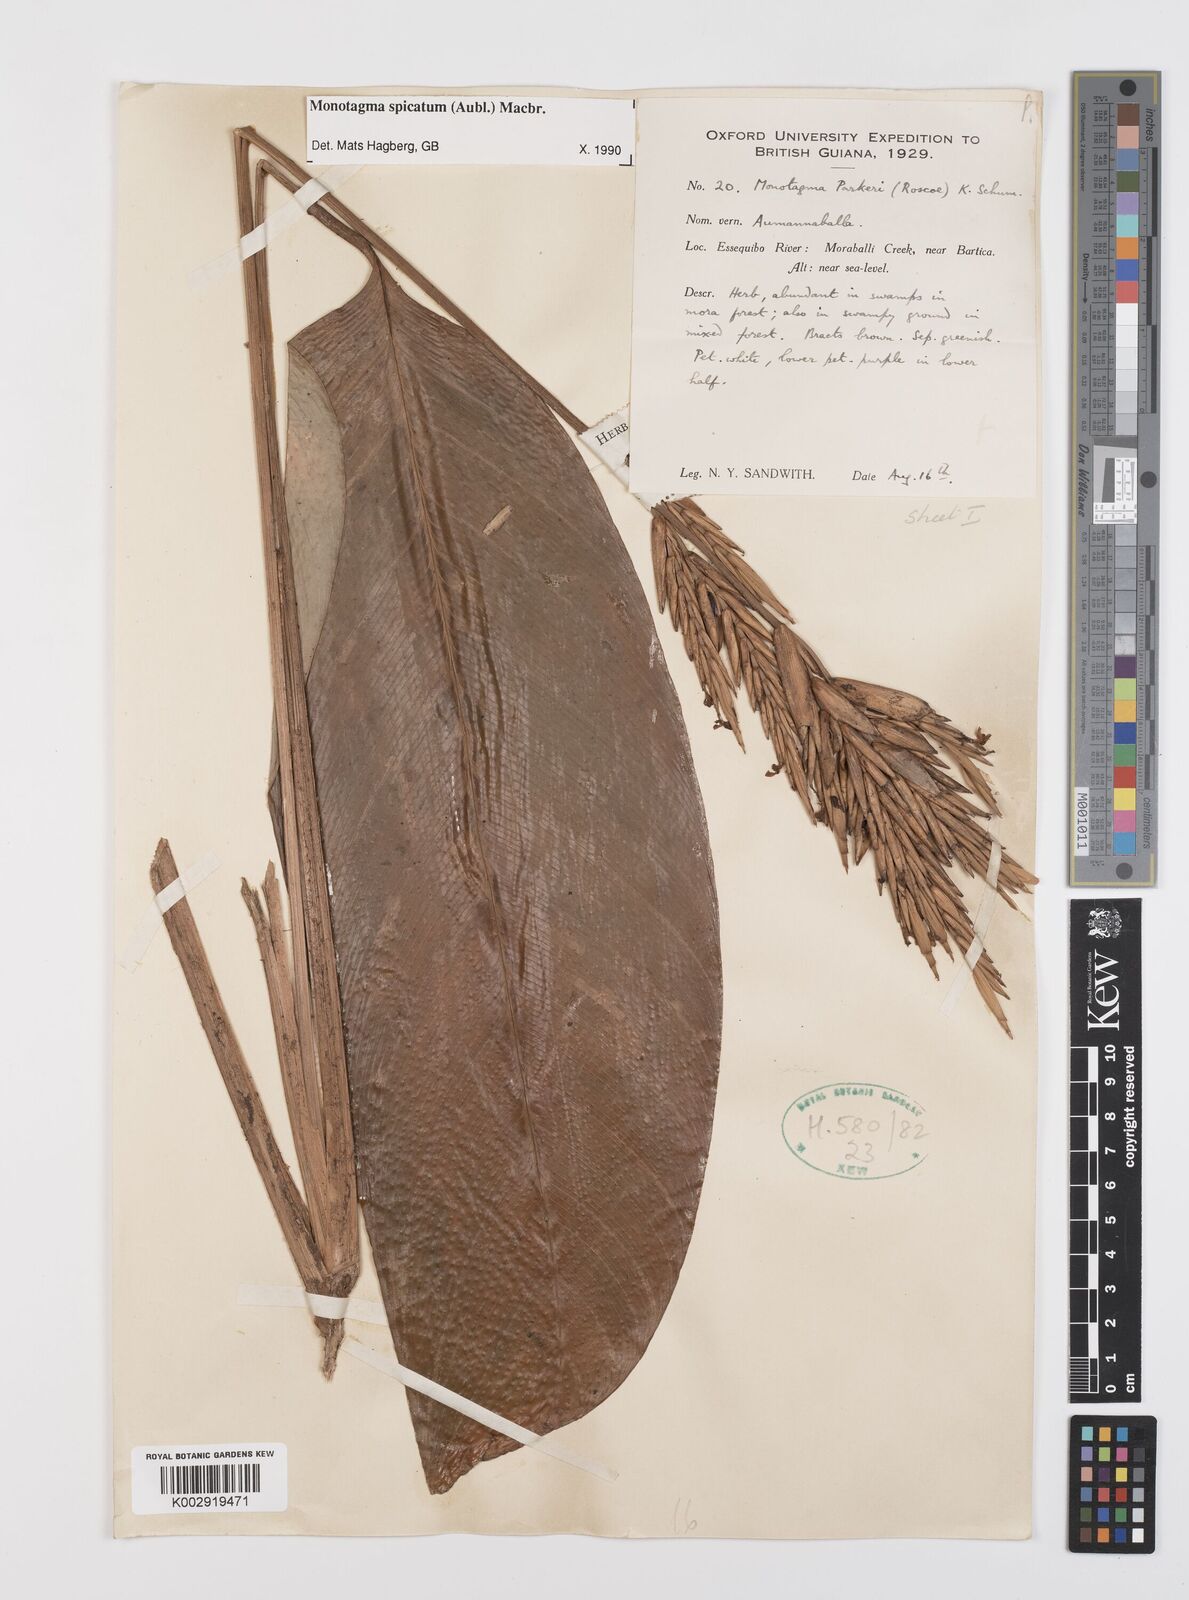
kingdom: Plantae
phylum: Tracheophyta
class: Liliopsida
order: Zingiberales
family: Marantaceae
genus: Monotagma
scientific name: Monotagma spicatum
